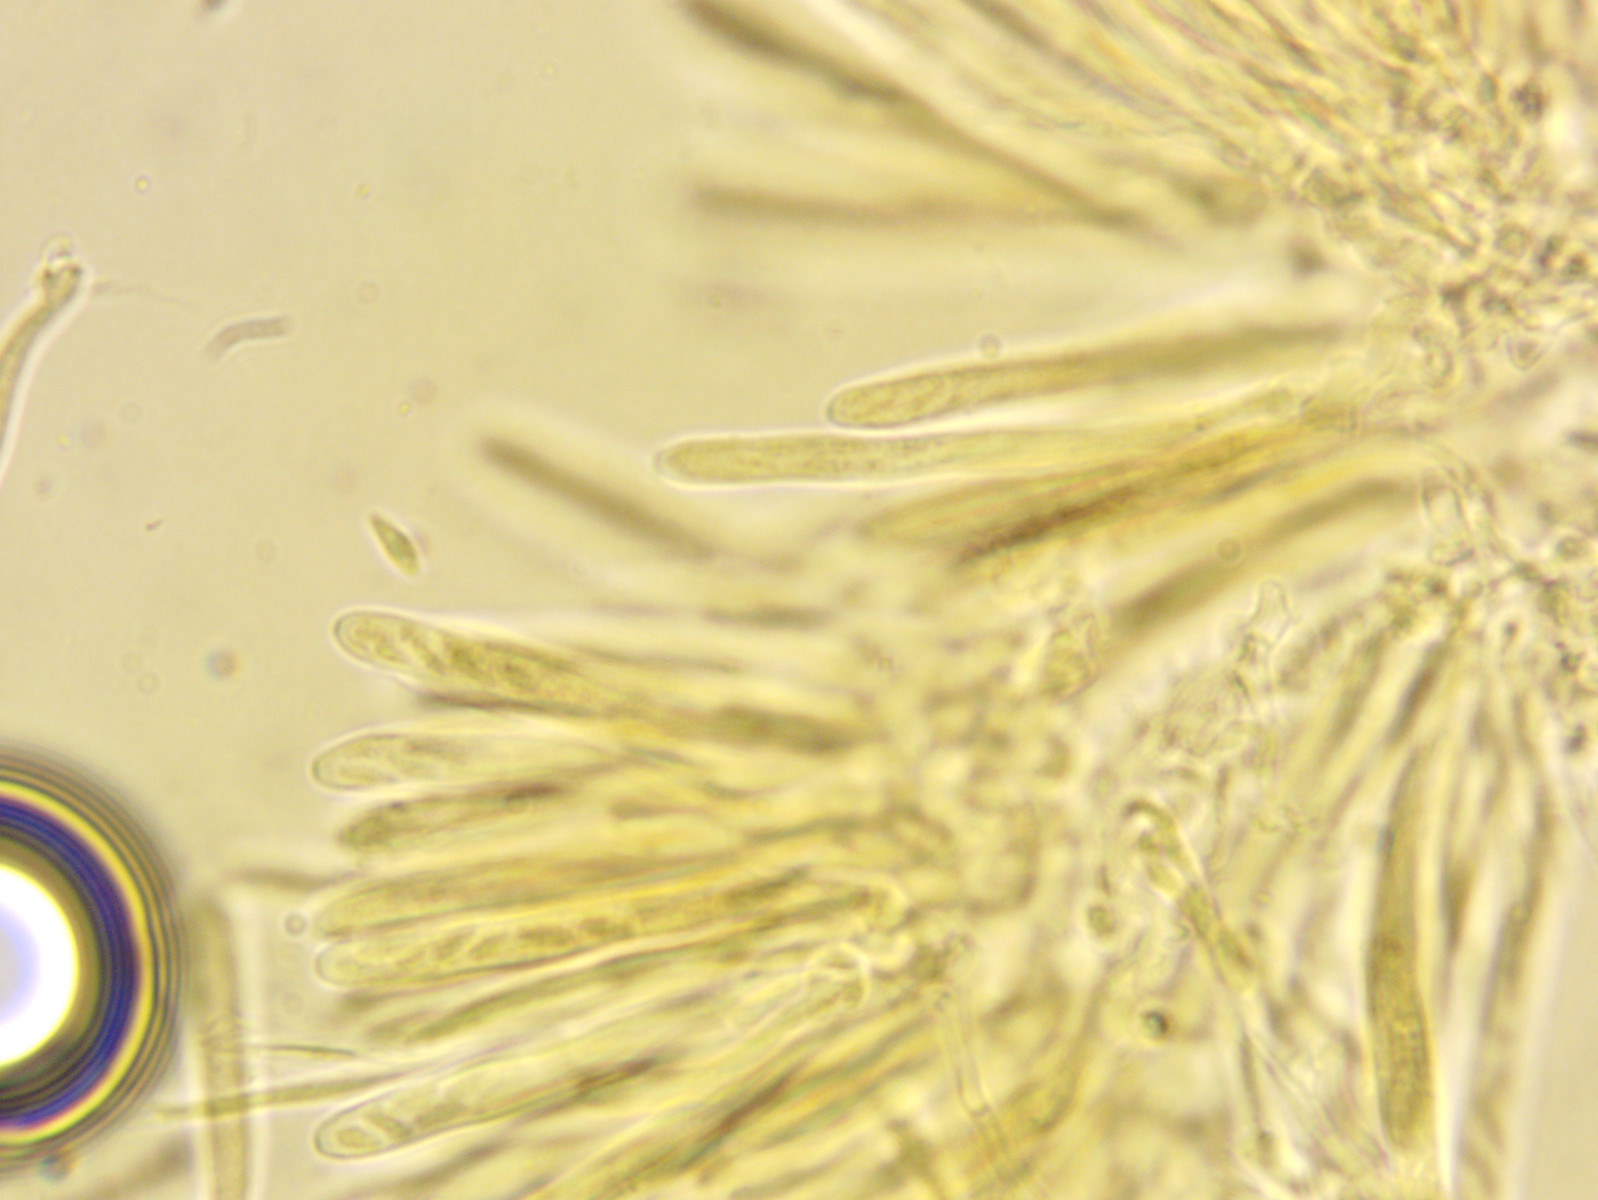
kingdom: Fungi
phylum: Ascomycota
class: Leotiomycetes
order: Helotiales
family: Lachnaceae
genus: Lachnum
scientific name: Lachnum impudicum
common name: vinter-frynseskive
